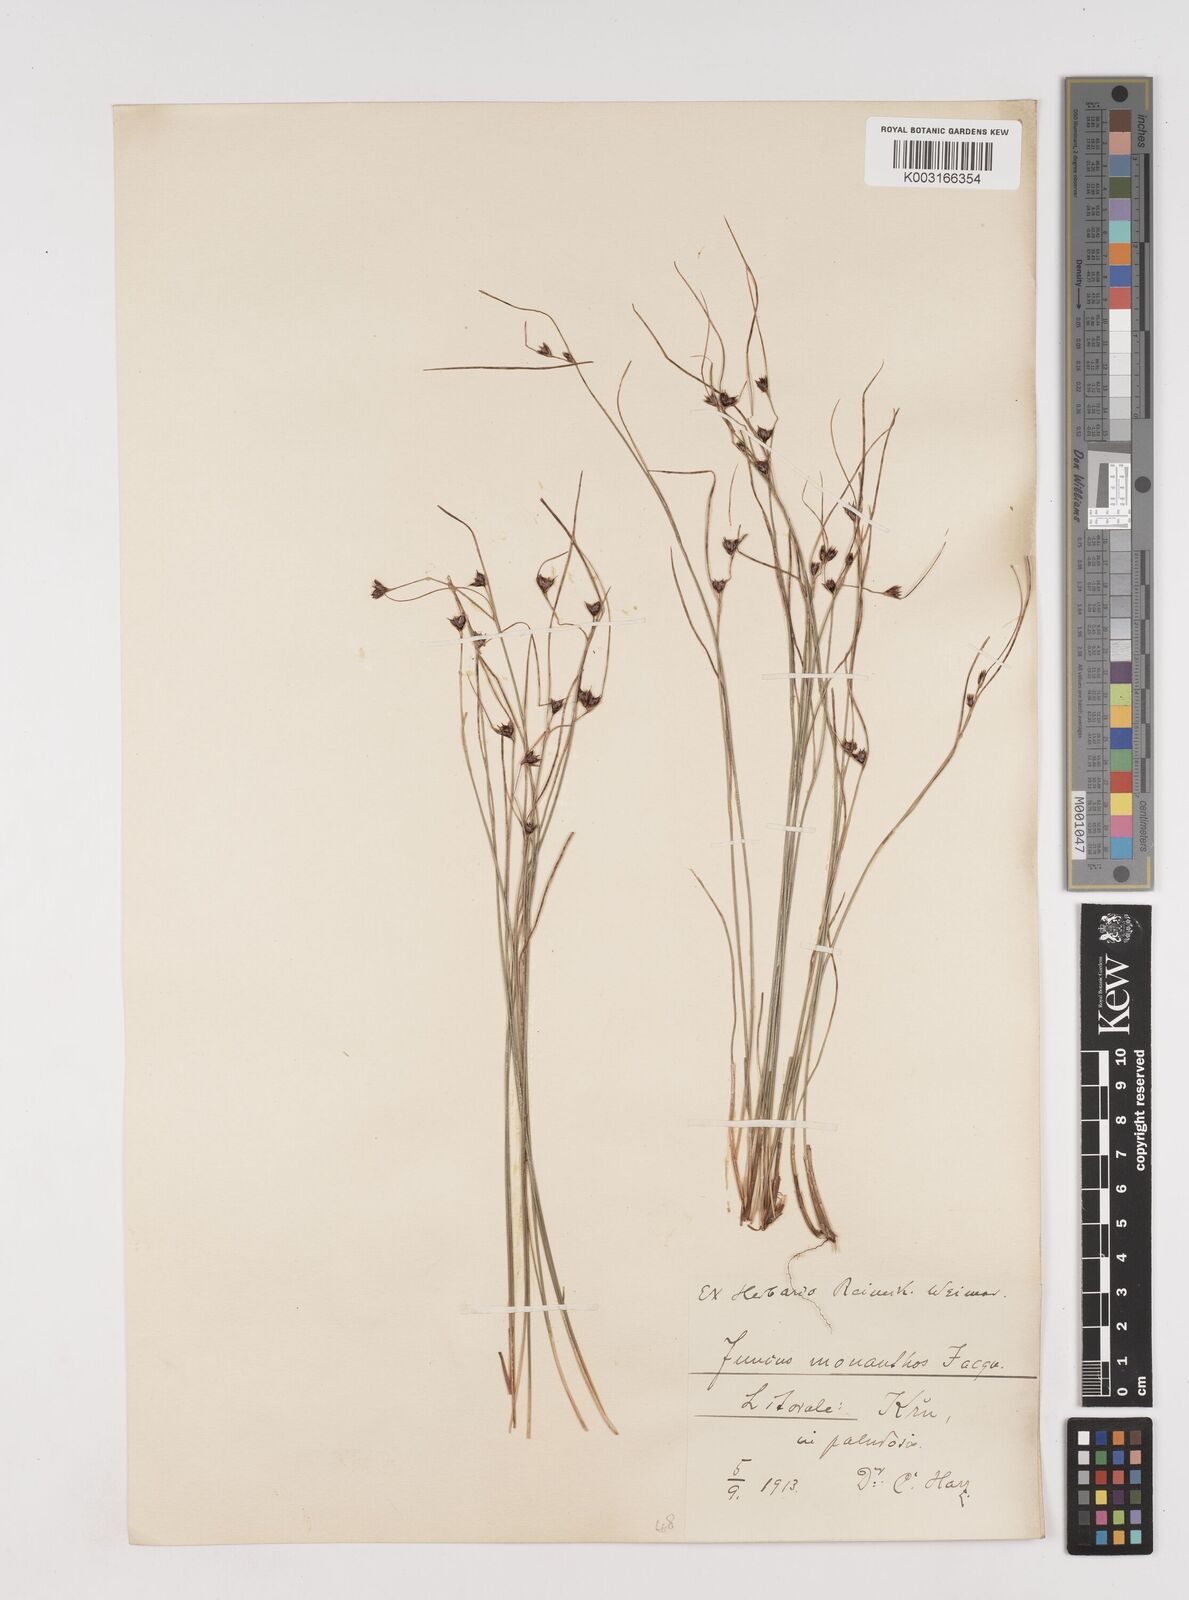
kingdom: Plantae
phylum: Tracheophyta
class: Liliopsida
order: Poales
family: Juncaceae
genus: Oreojuncus
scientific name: Oreojuncus trifidus
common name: Highland rush
